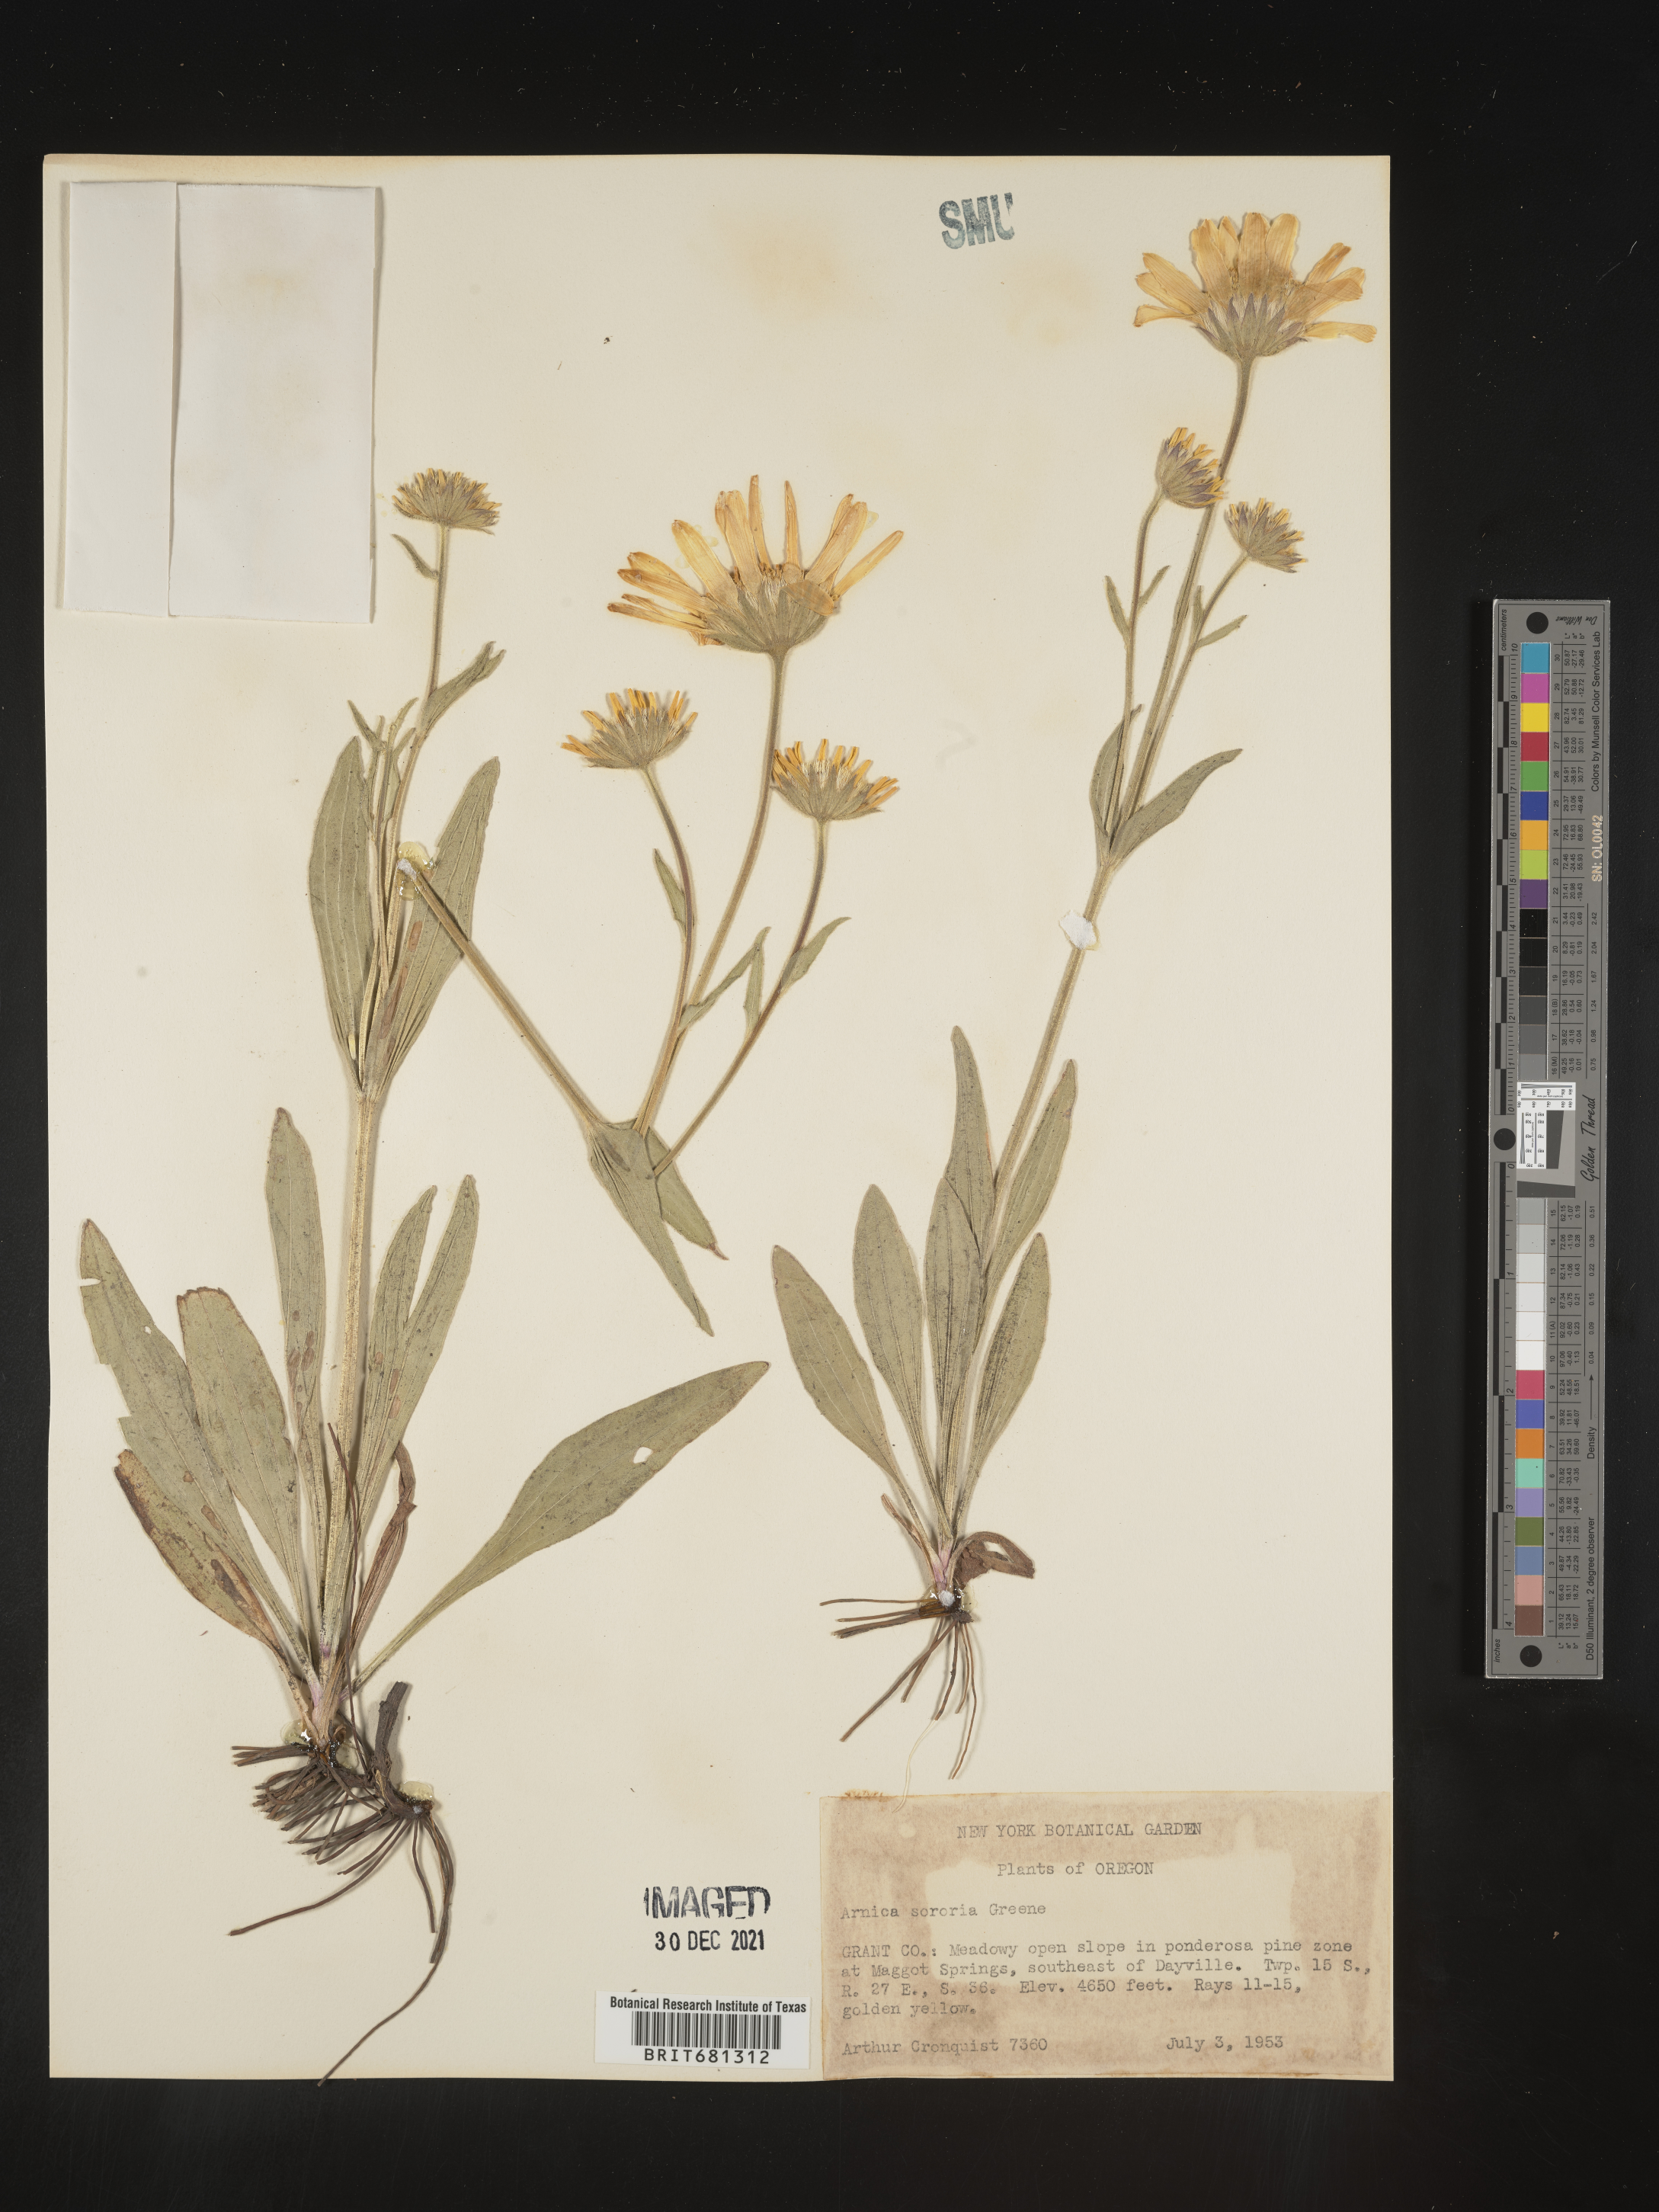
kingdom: Plantae
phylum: Tracheophyta
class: Magnoliopsida
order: Asterales
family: Asteraceae
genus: Arnica
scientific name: Arnica sororia
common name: Twin arnica
